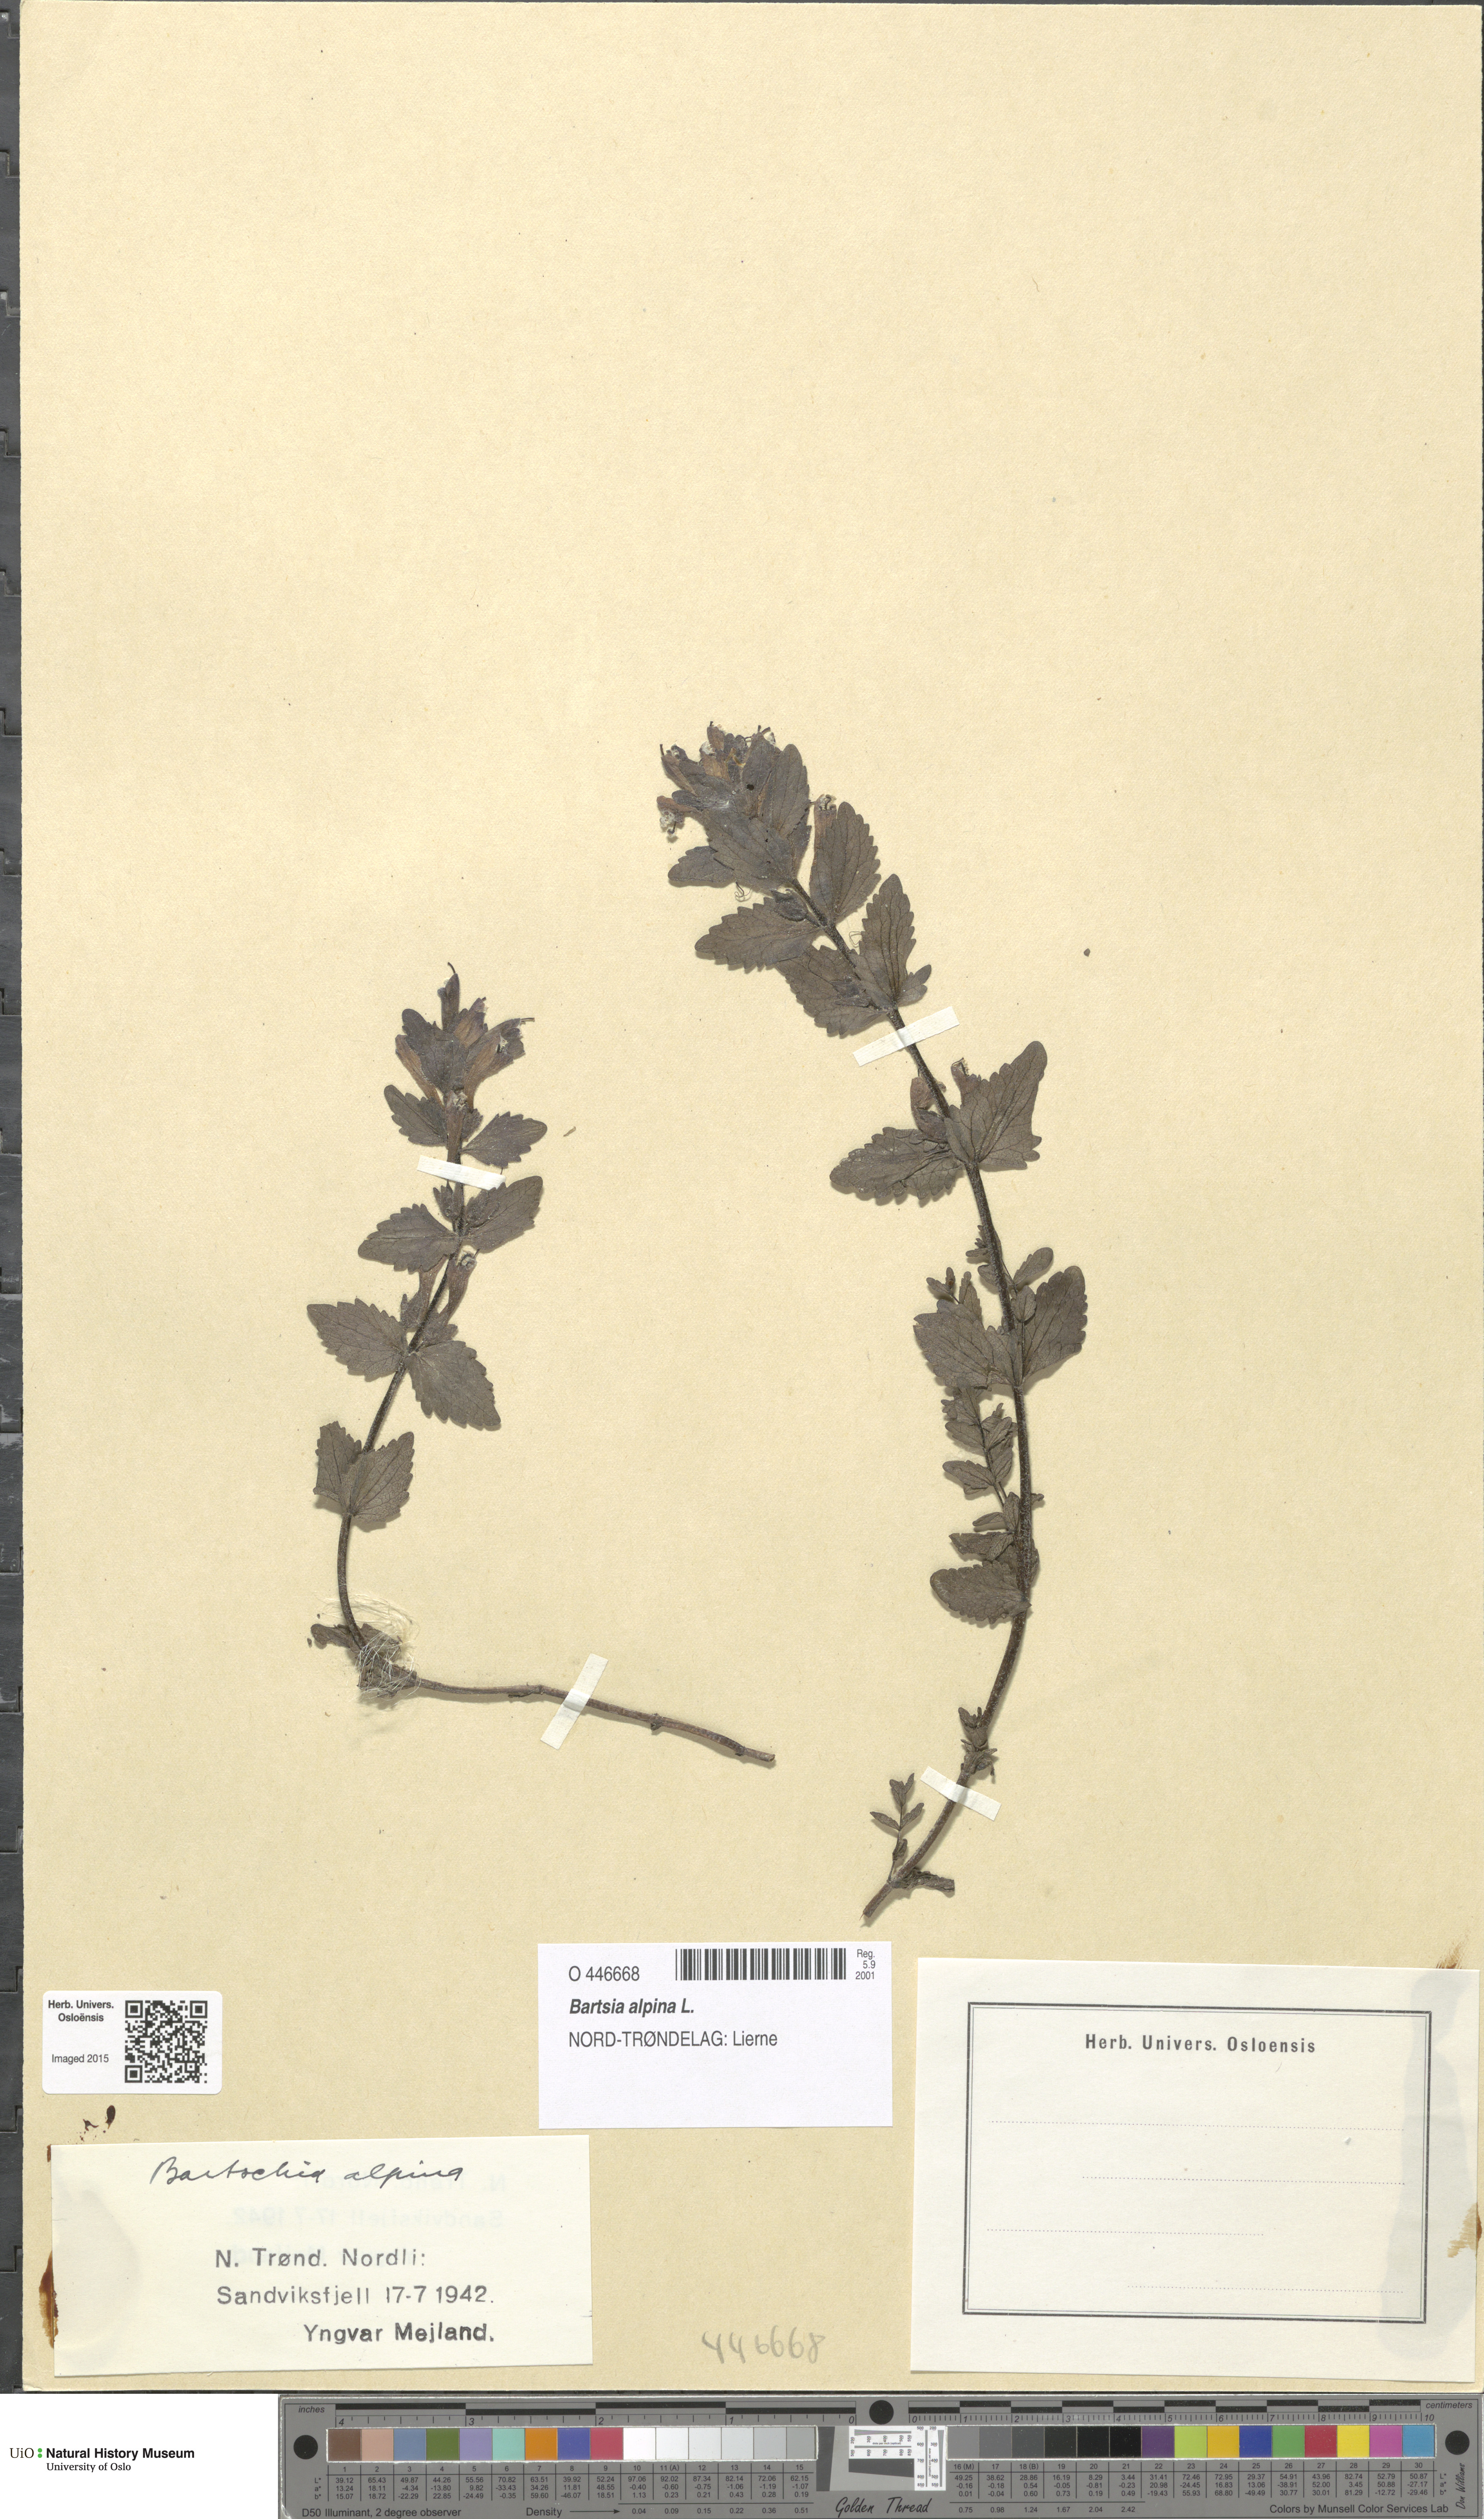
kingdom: Plantae
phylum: Tracheophyta
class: Magnoliopsida
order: Lamiales
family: Orobanchaceae
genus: Bartsia
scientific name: Bartsia alpina
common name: Alpine bartsia
